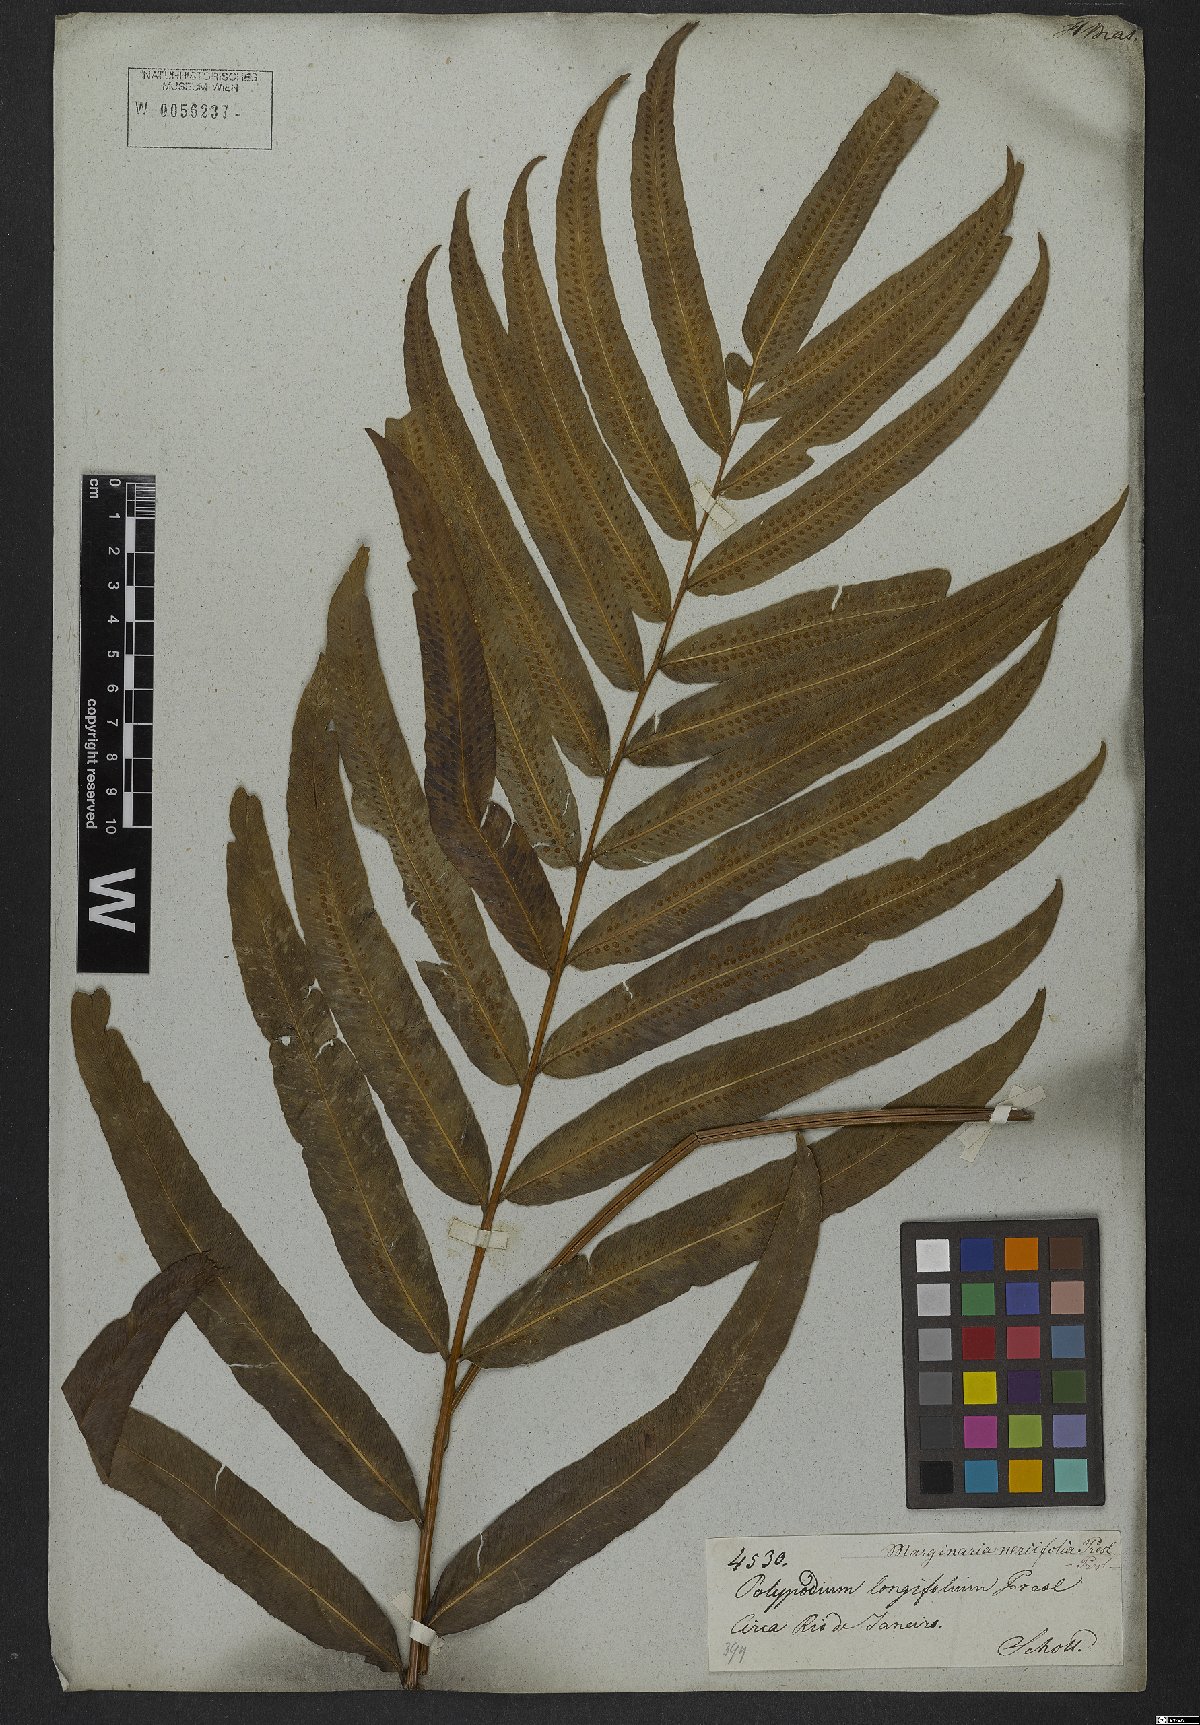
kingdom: Plantae
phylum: Tracheophyta
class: Polypodiopsida
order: Polypodiales
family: Polypodiaceae
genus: Serpocaulon
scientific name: Serpocaulon triseriale
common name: Angle-vein fern
